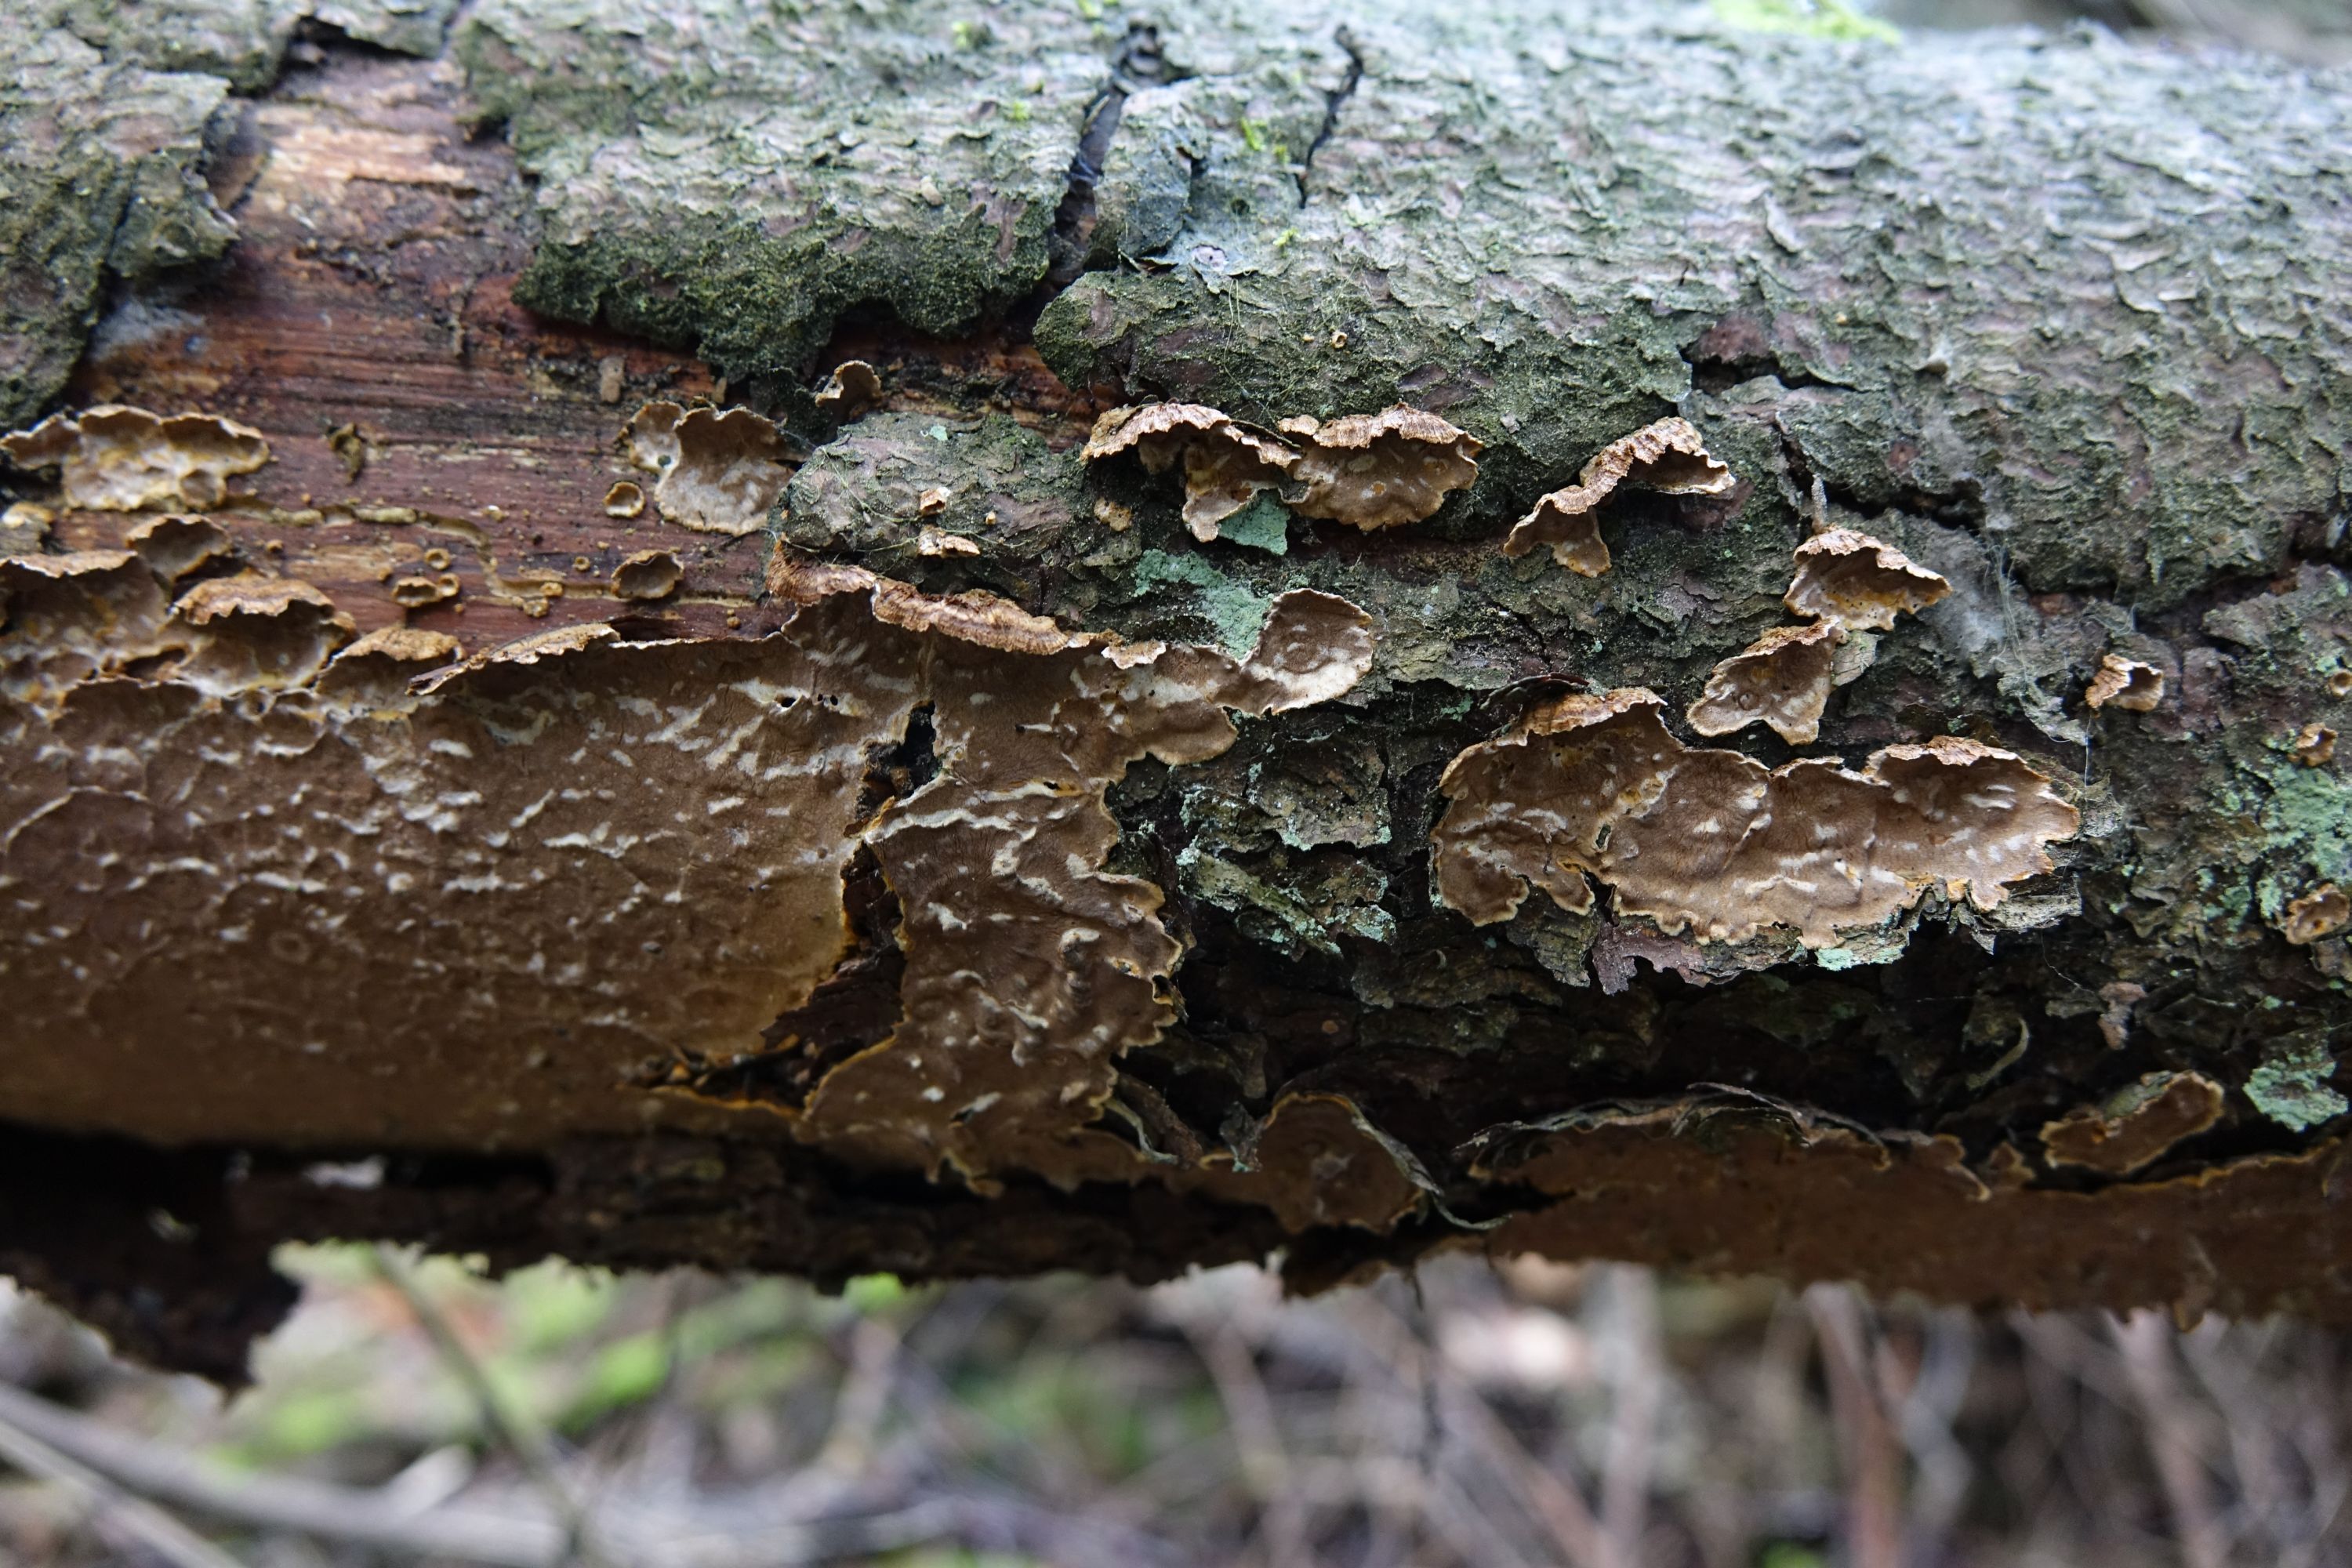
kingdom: Fungi
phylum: Basidiomycota
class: Agaricomycetes
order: Russulales
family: Stereaceae
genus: Stereum
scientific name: Stereum sanguinolentum
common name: Bleeding conifer crust
